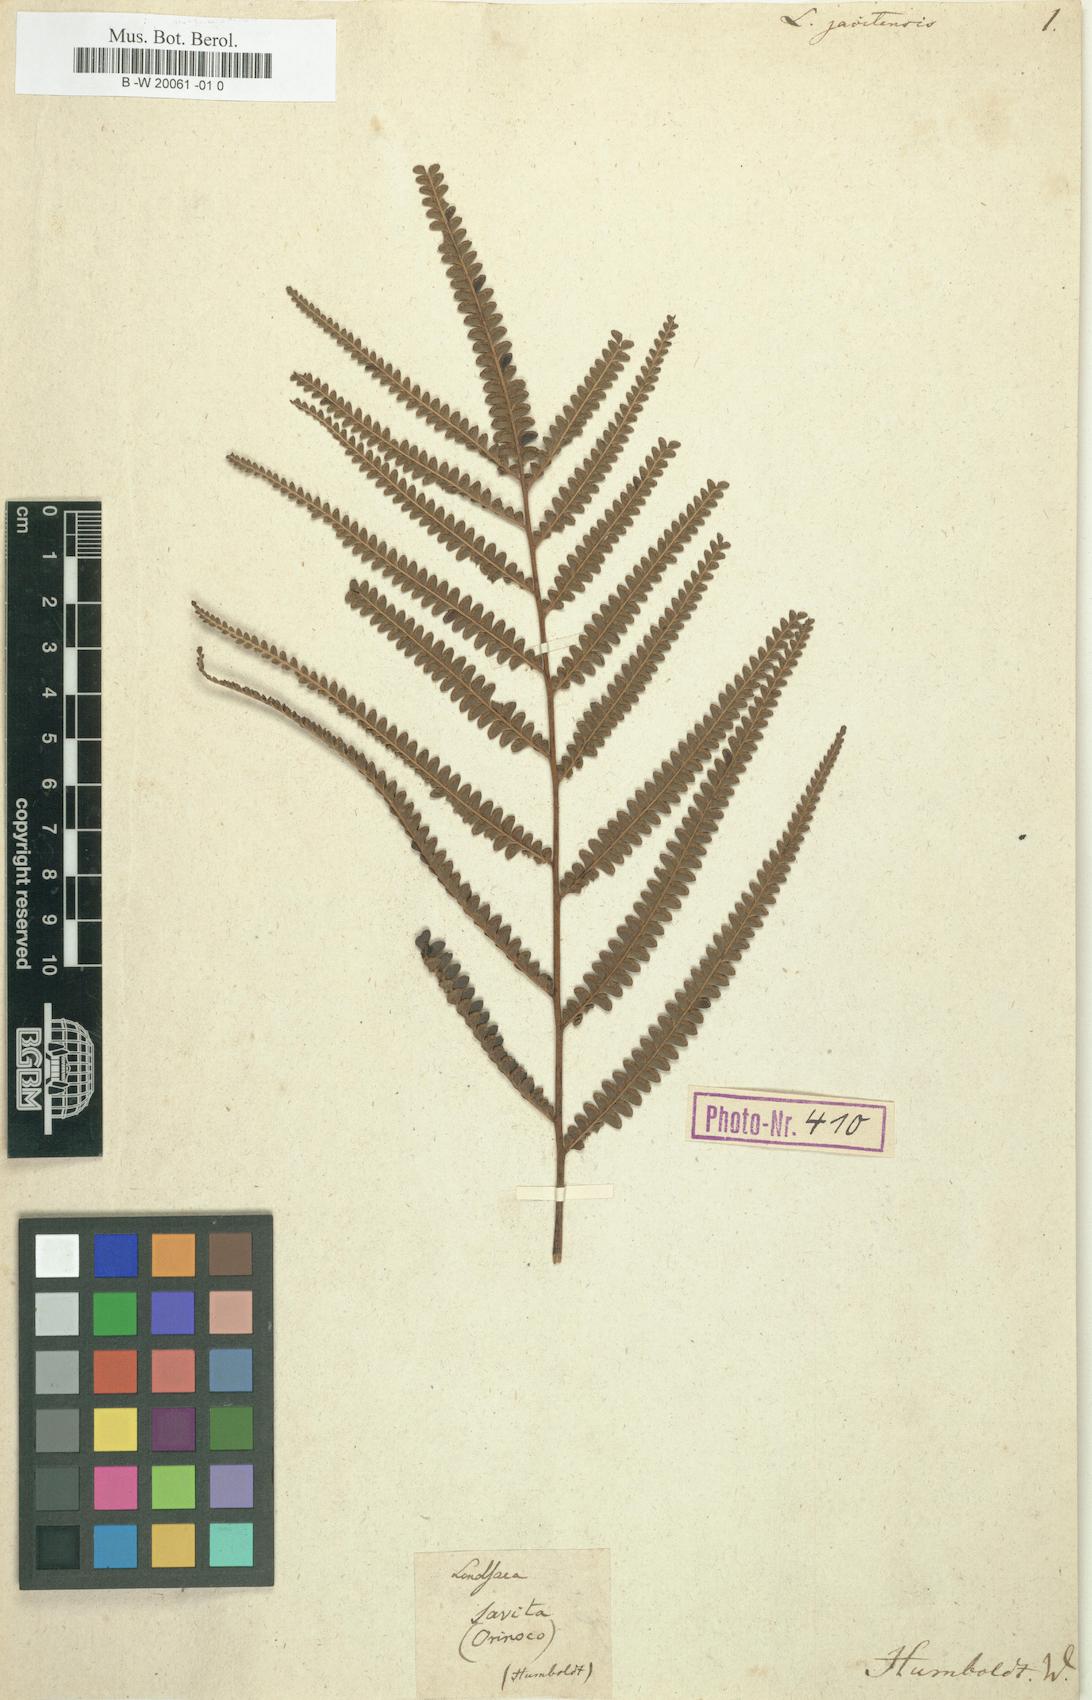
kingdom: Plantae
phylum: Tracheophyta
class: Polypodiopsida
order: Polypodiales
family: Lindsaeaceae
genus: Lindsaea
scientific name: Lindsaea javitensis
